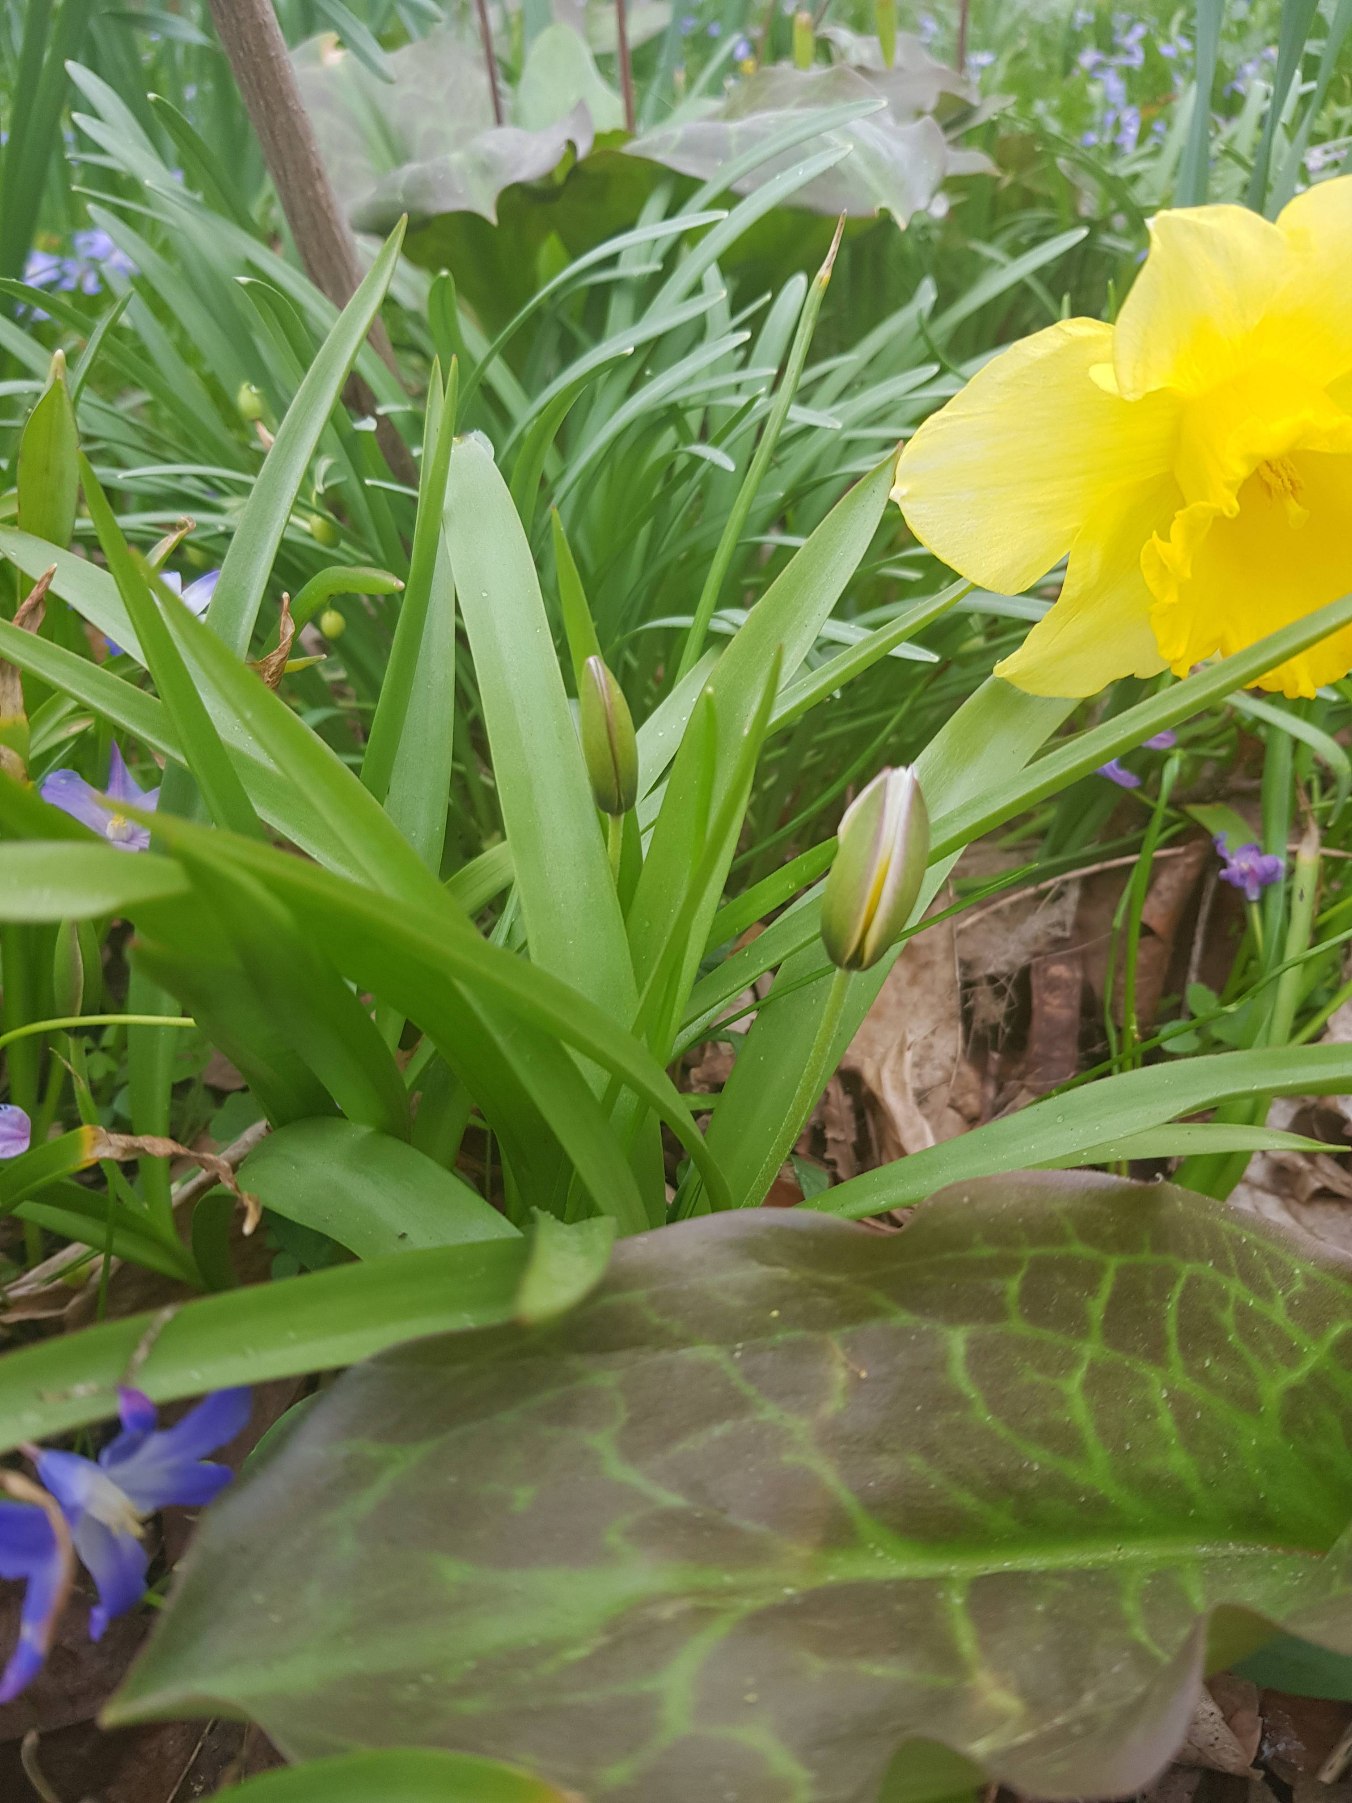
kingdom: Plantae
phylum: Tracheophyta
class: Liliopsida
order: Liliales
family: Liliaceae
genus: Tulipa
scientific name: Tulipa urumiensis
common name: Skærm-tulipan
